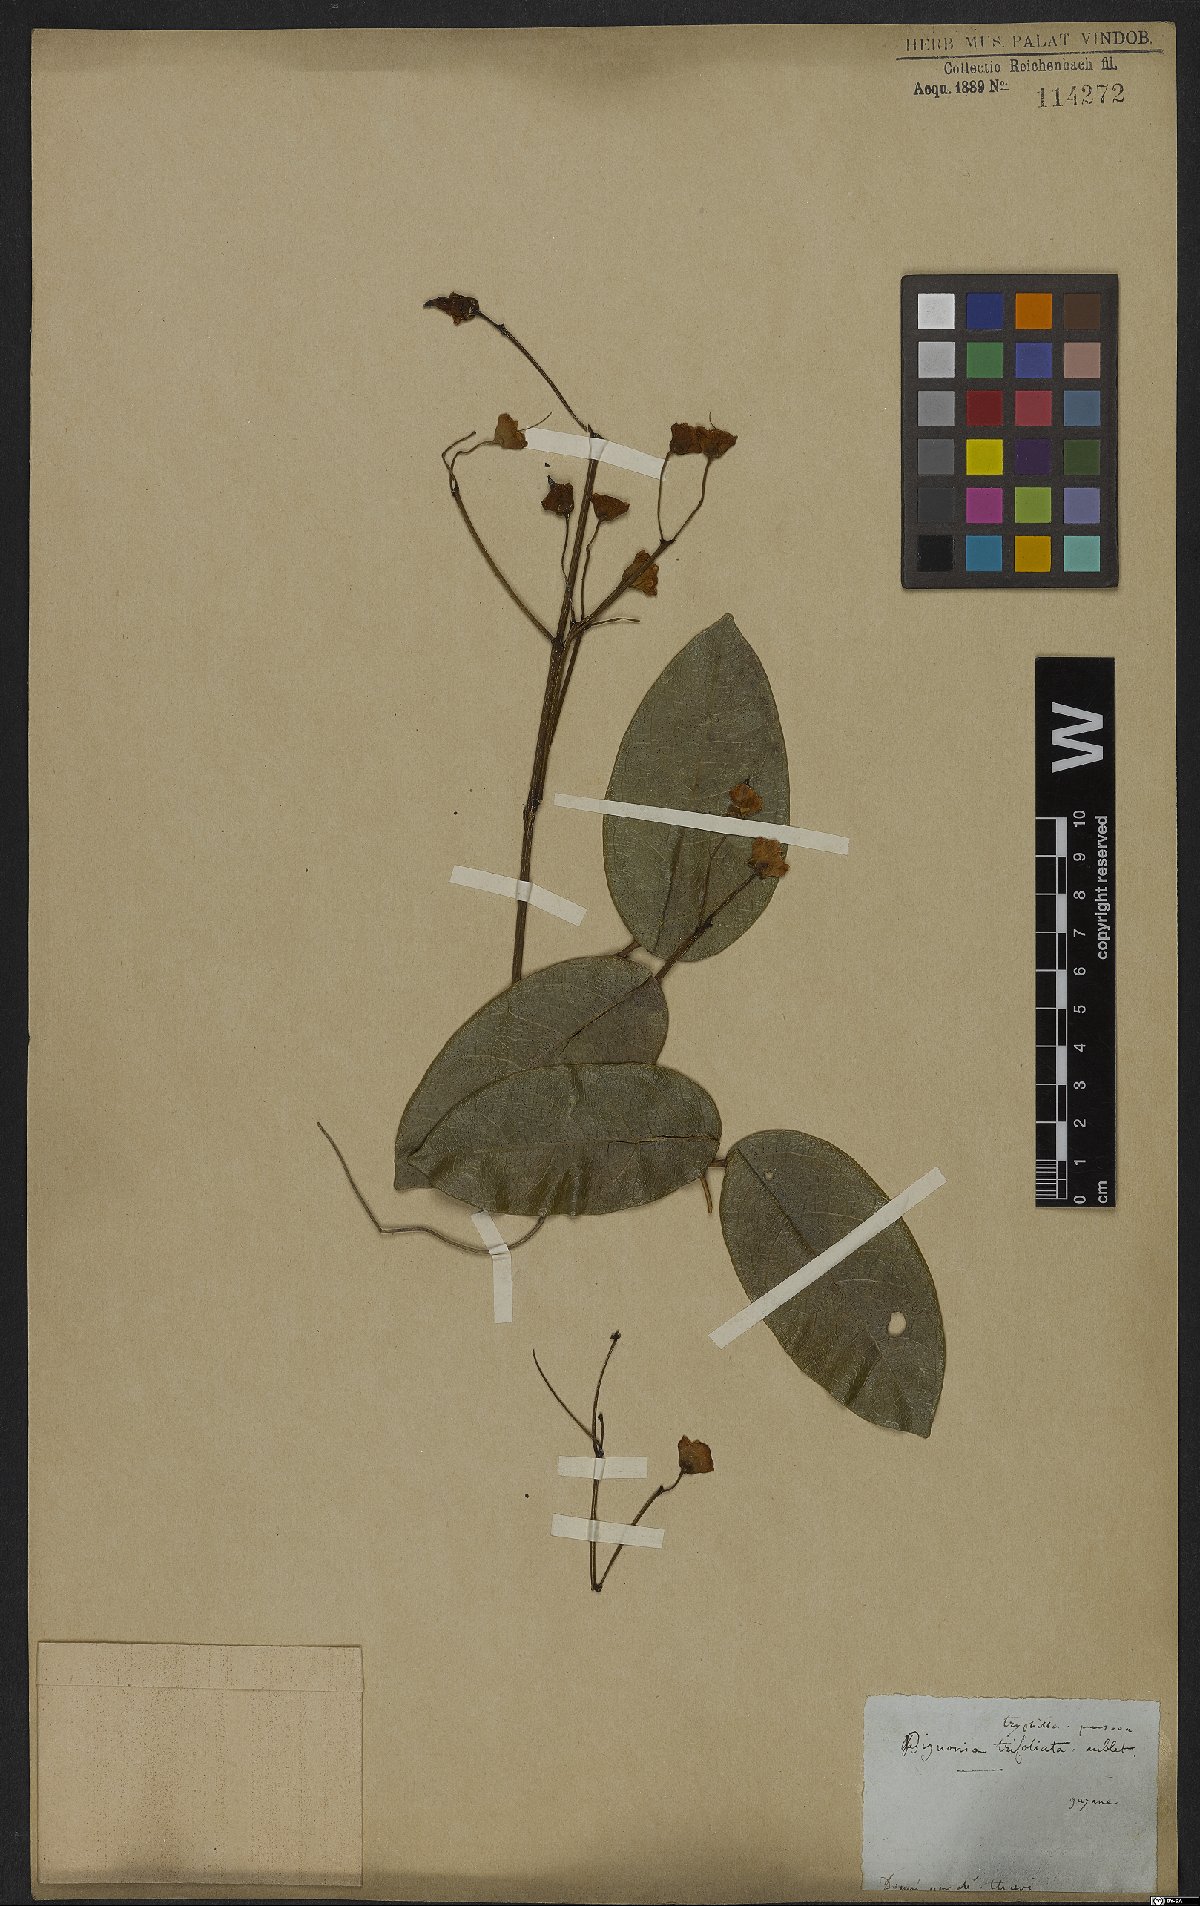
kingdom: Plantae
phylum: Tracheophyta
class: Magnoliopsida
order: Lamiales
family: Bignoniaceae
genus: Adenocalymma
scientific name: Adenocalymma trifoliatum
